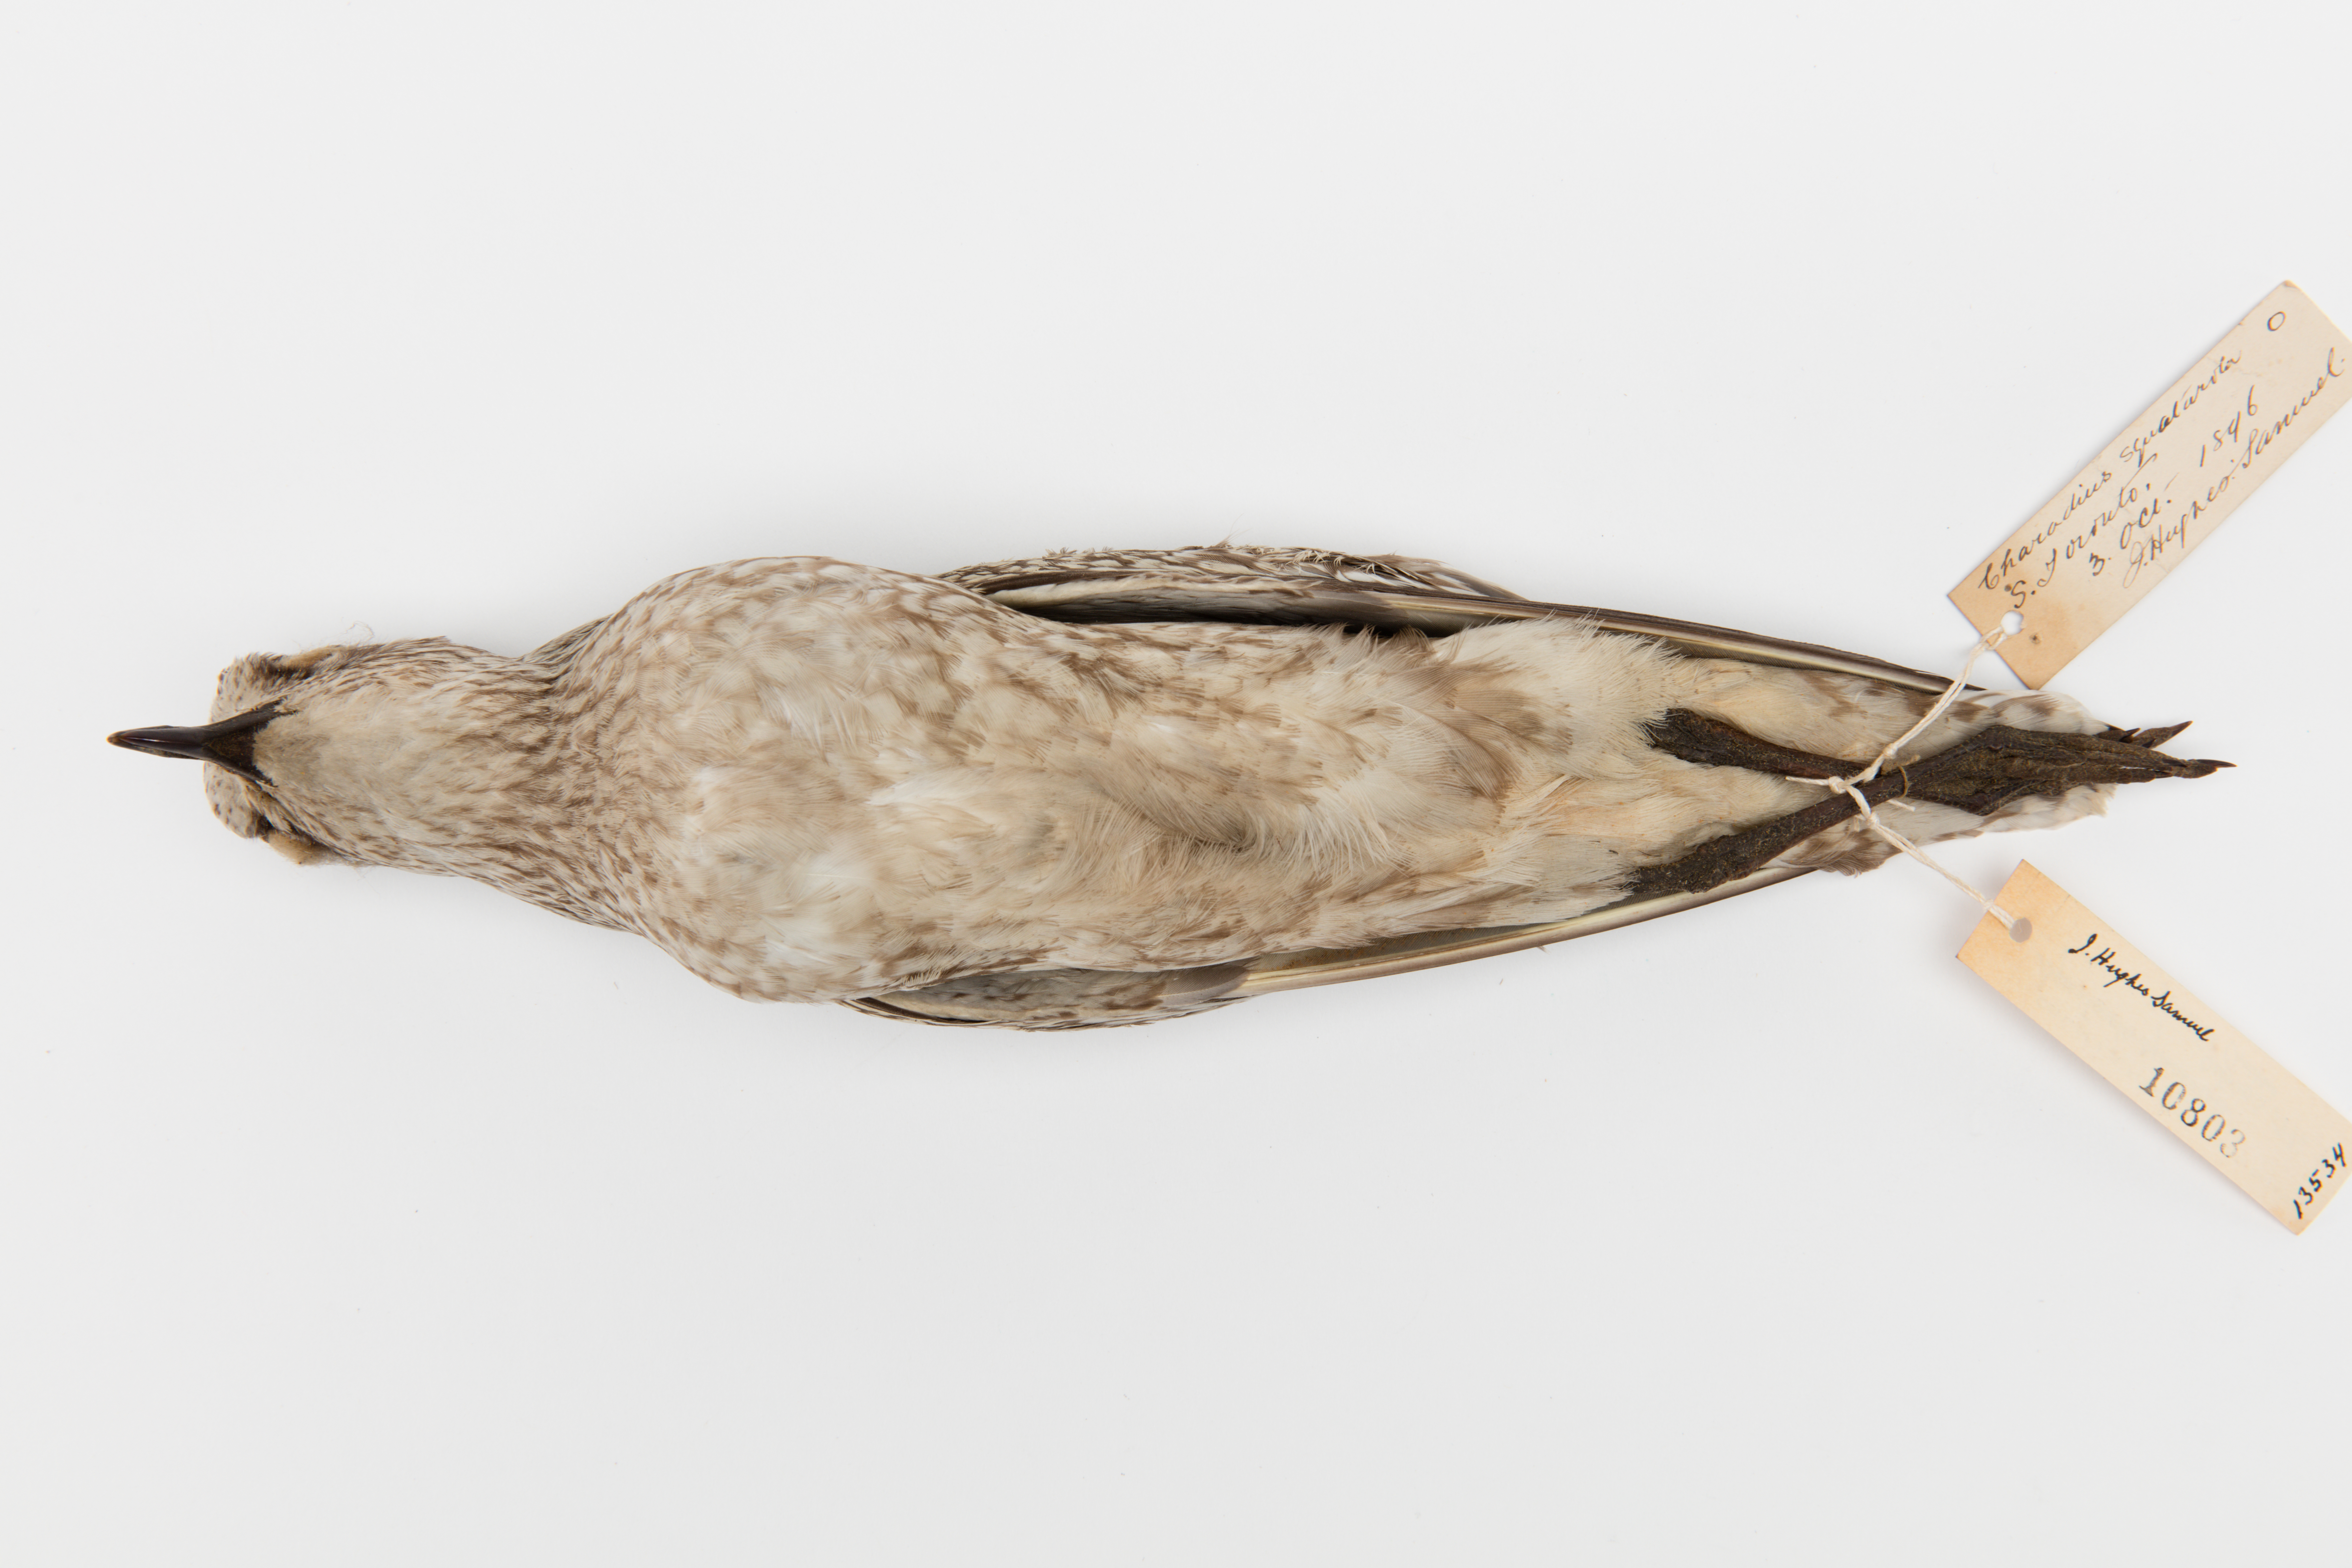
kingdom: Animalia
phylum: Chordata
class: Aves
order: Charadriiformes
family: Charadriidae
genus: Pluvialis
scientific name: Pluvialis squatarola
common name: Grey plover
